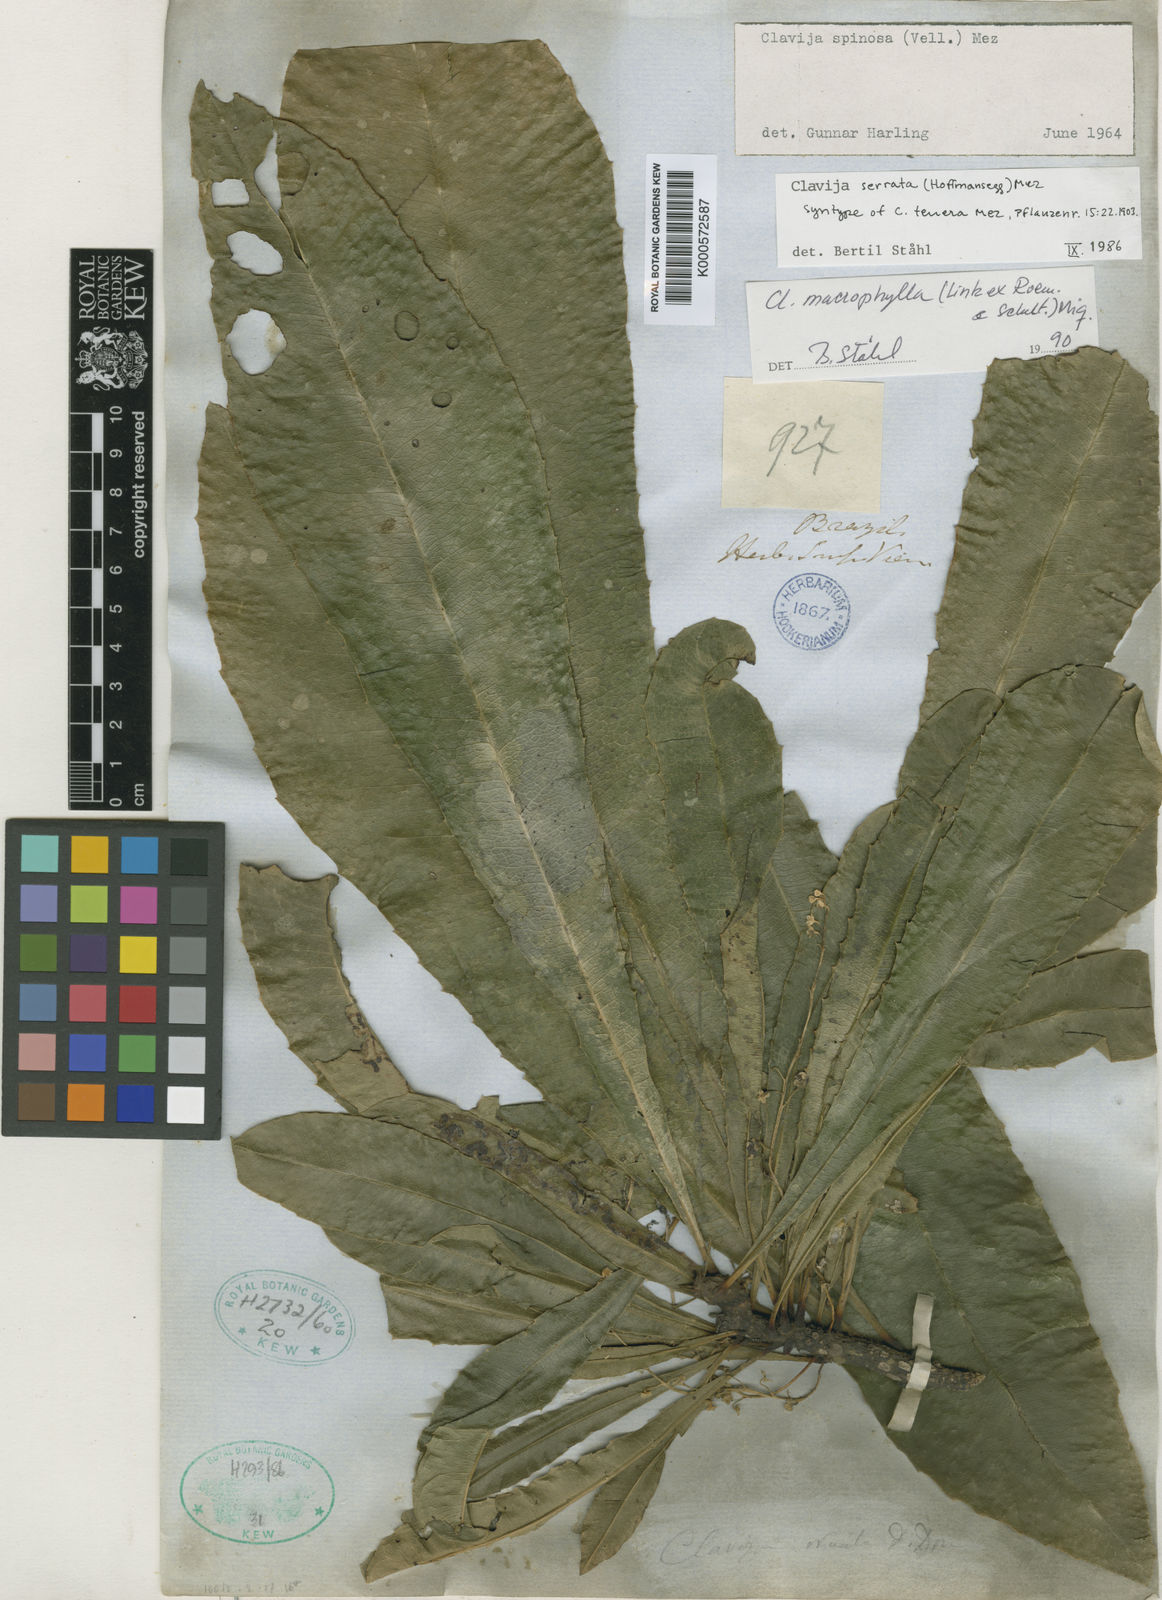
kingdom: Plantae
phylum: Tracheophyta
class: Magnoliopsida
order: Ericales
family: Primulaceae
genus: Clavija
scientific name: Clavija macrophylla
